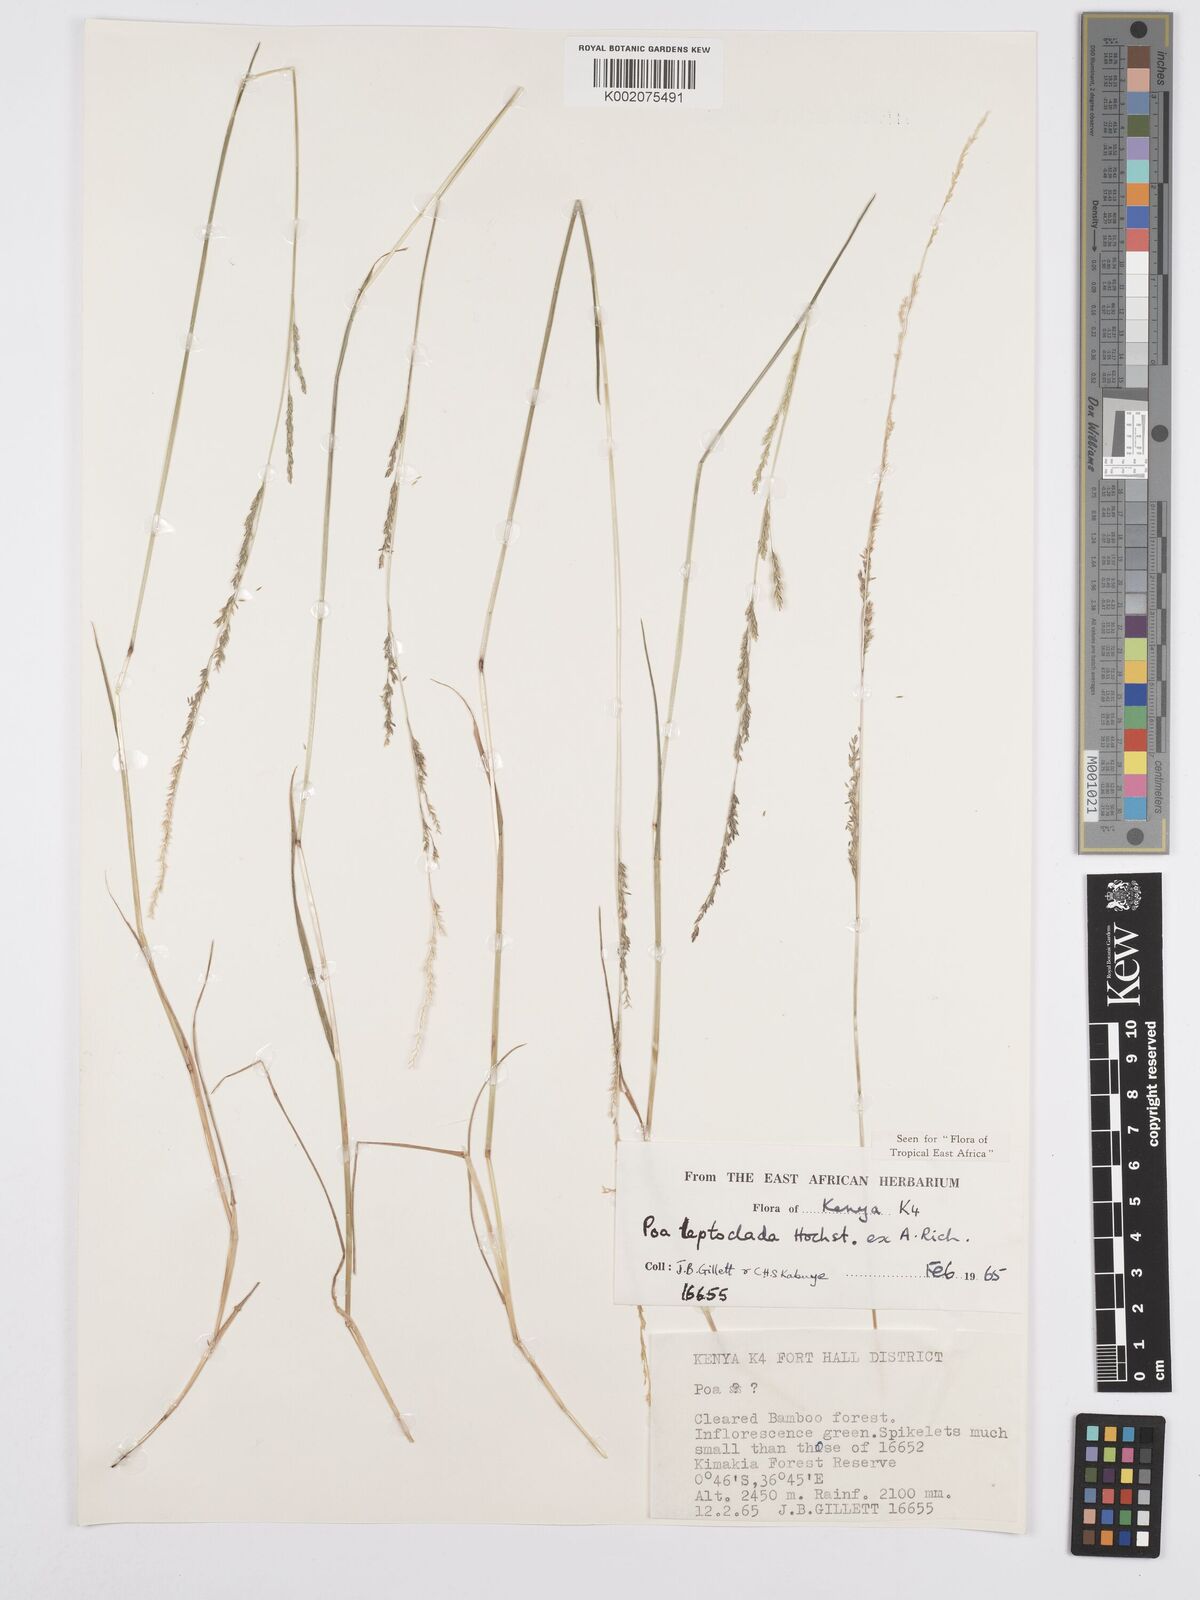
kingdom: Plantae
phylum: Tracheophyta
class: Liliopsida
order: Poales
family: Poaceae
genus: Poa
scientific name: Poa leptoclada
